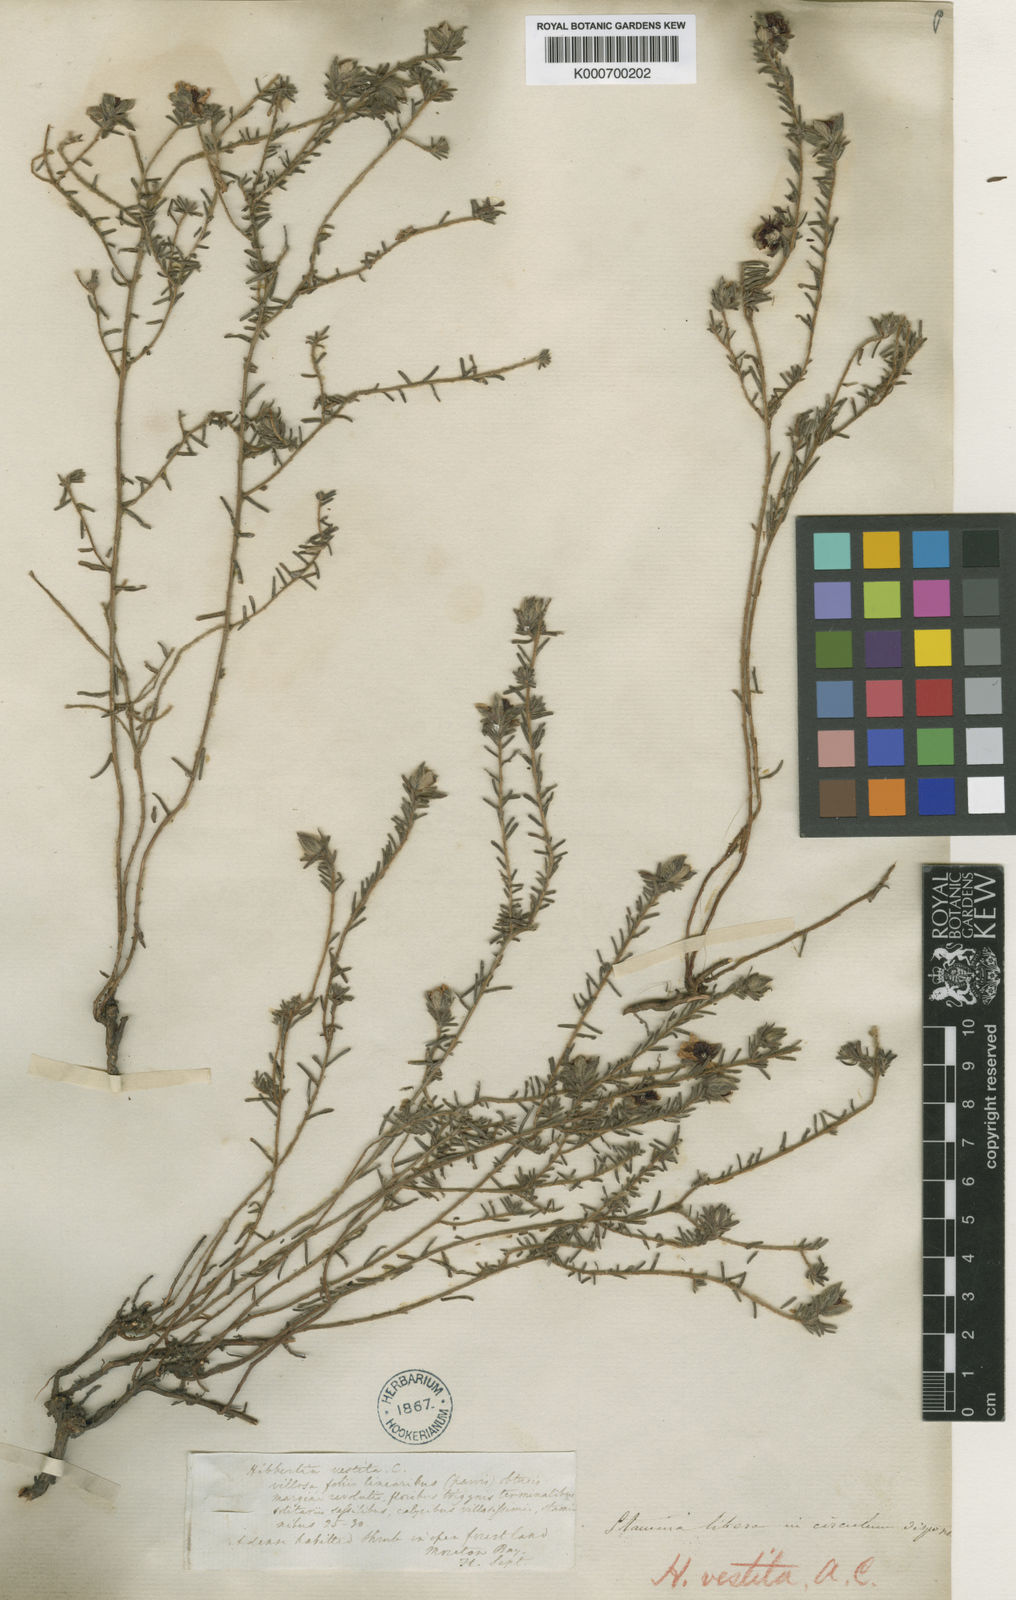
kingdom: Plantae
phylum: Tracheophyta
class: Magnoliopsida
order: Dilleniales
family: Dilleniaceae
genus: Hibbertia
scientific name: Hibbertia vestita
